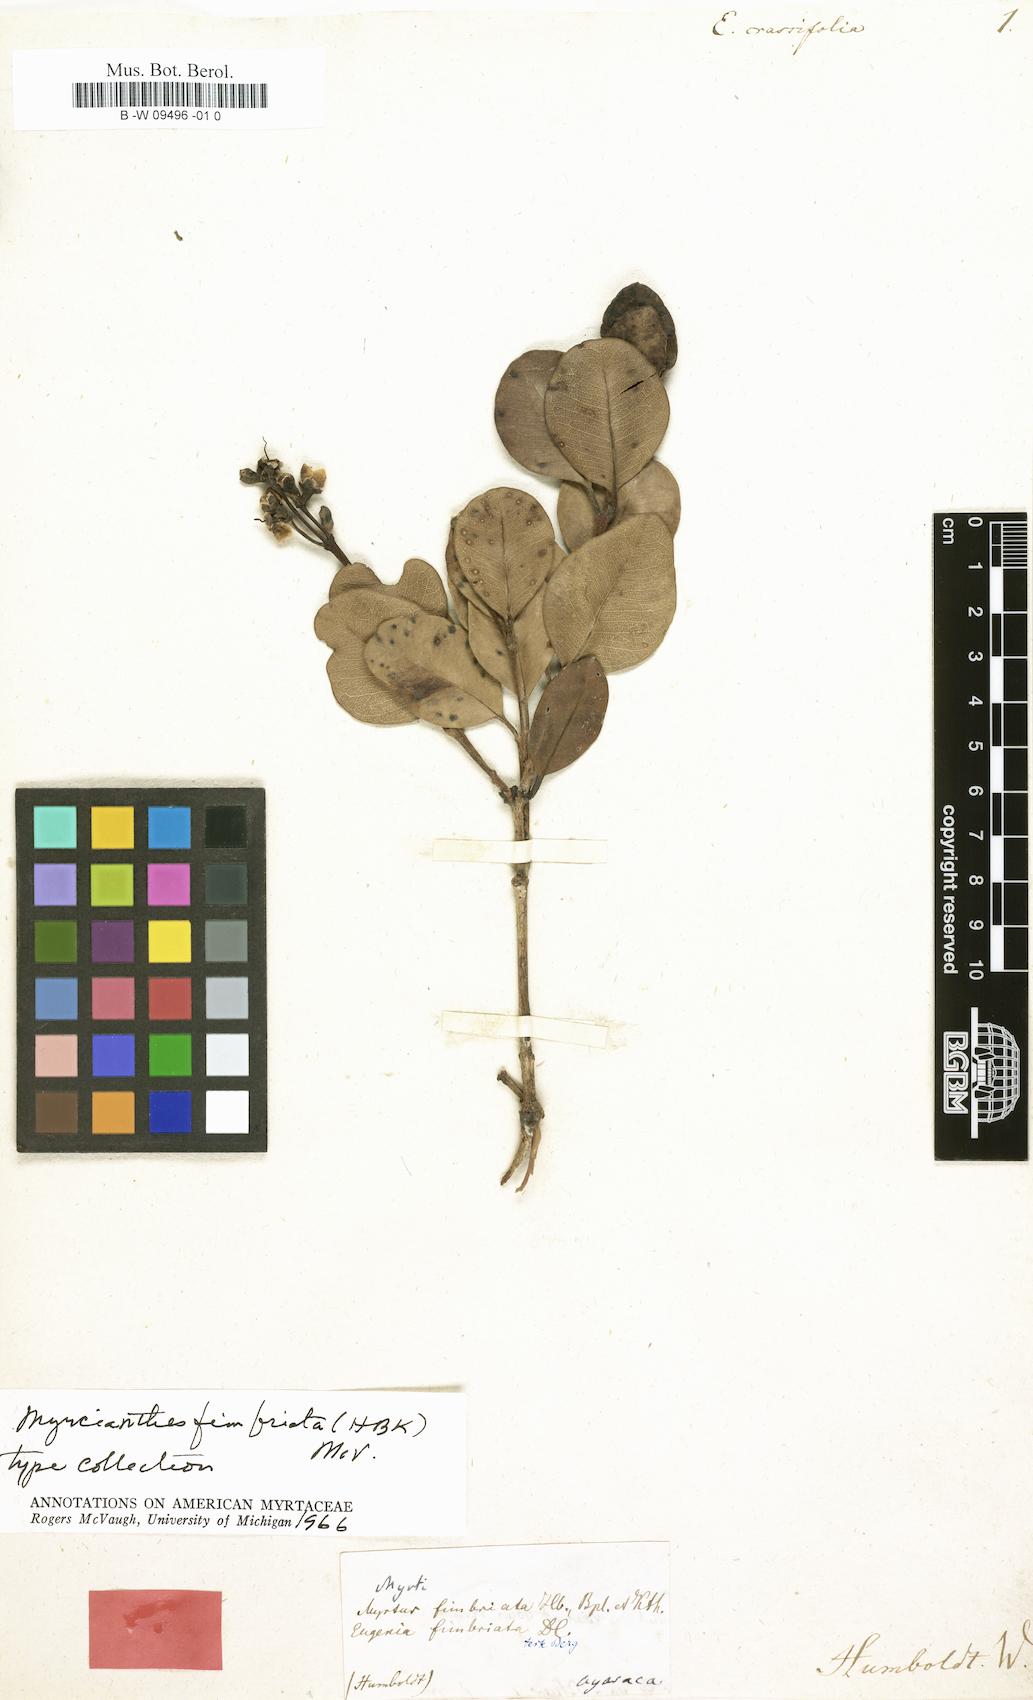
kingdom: Plantae
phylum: Tracheophyta
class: Magnoliopsida
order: Myrtales
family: Myrtaceae
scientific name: Myrtaceae
